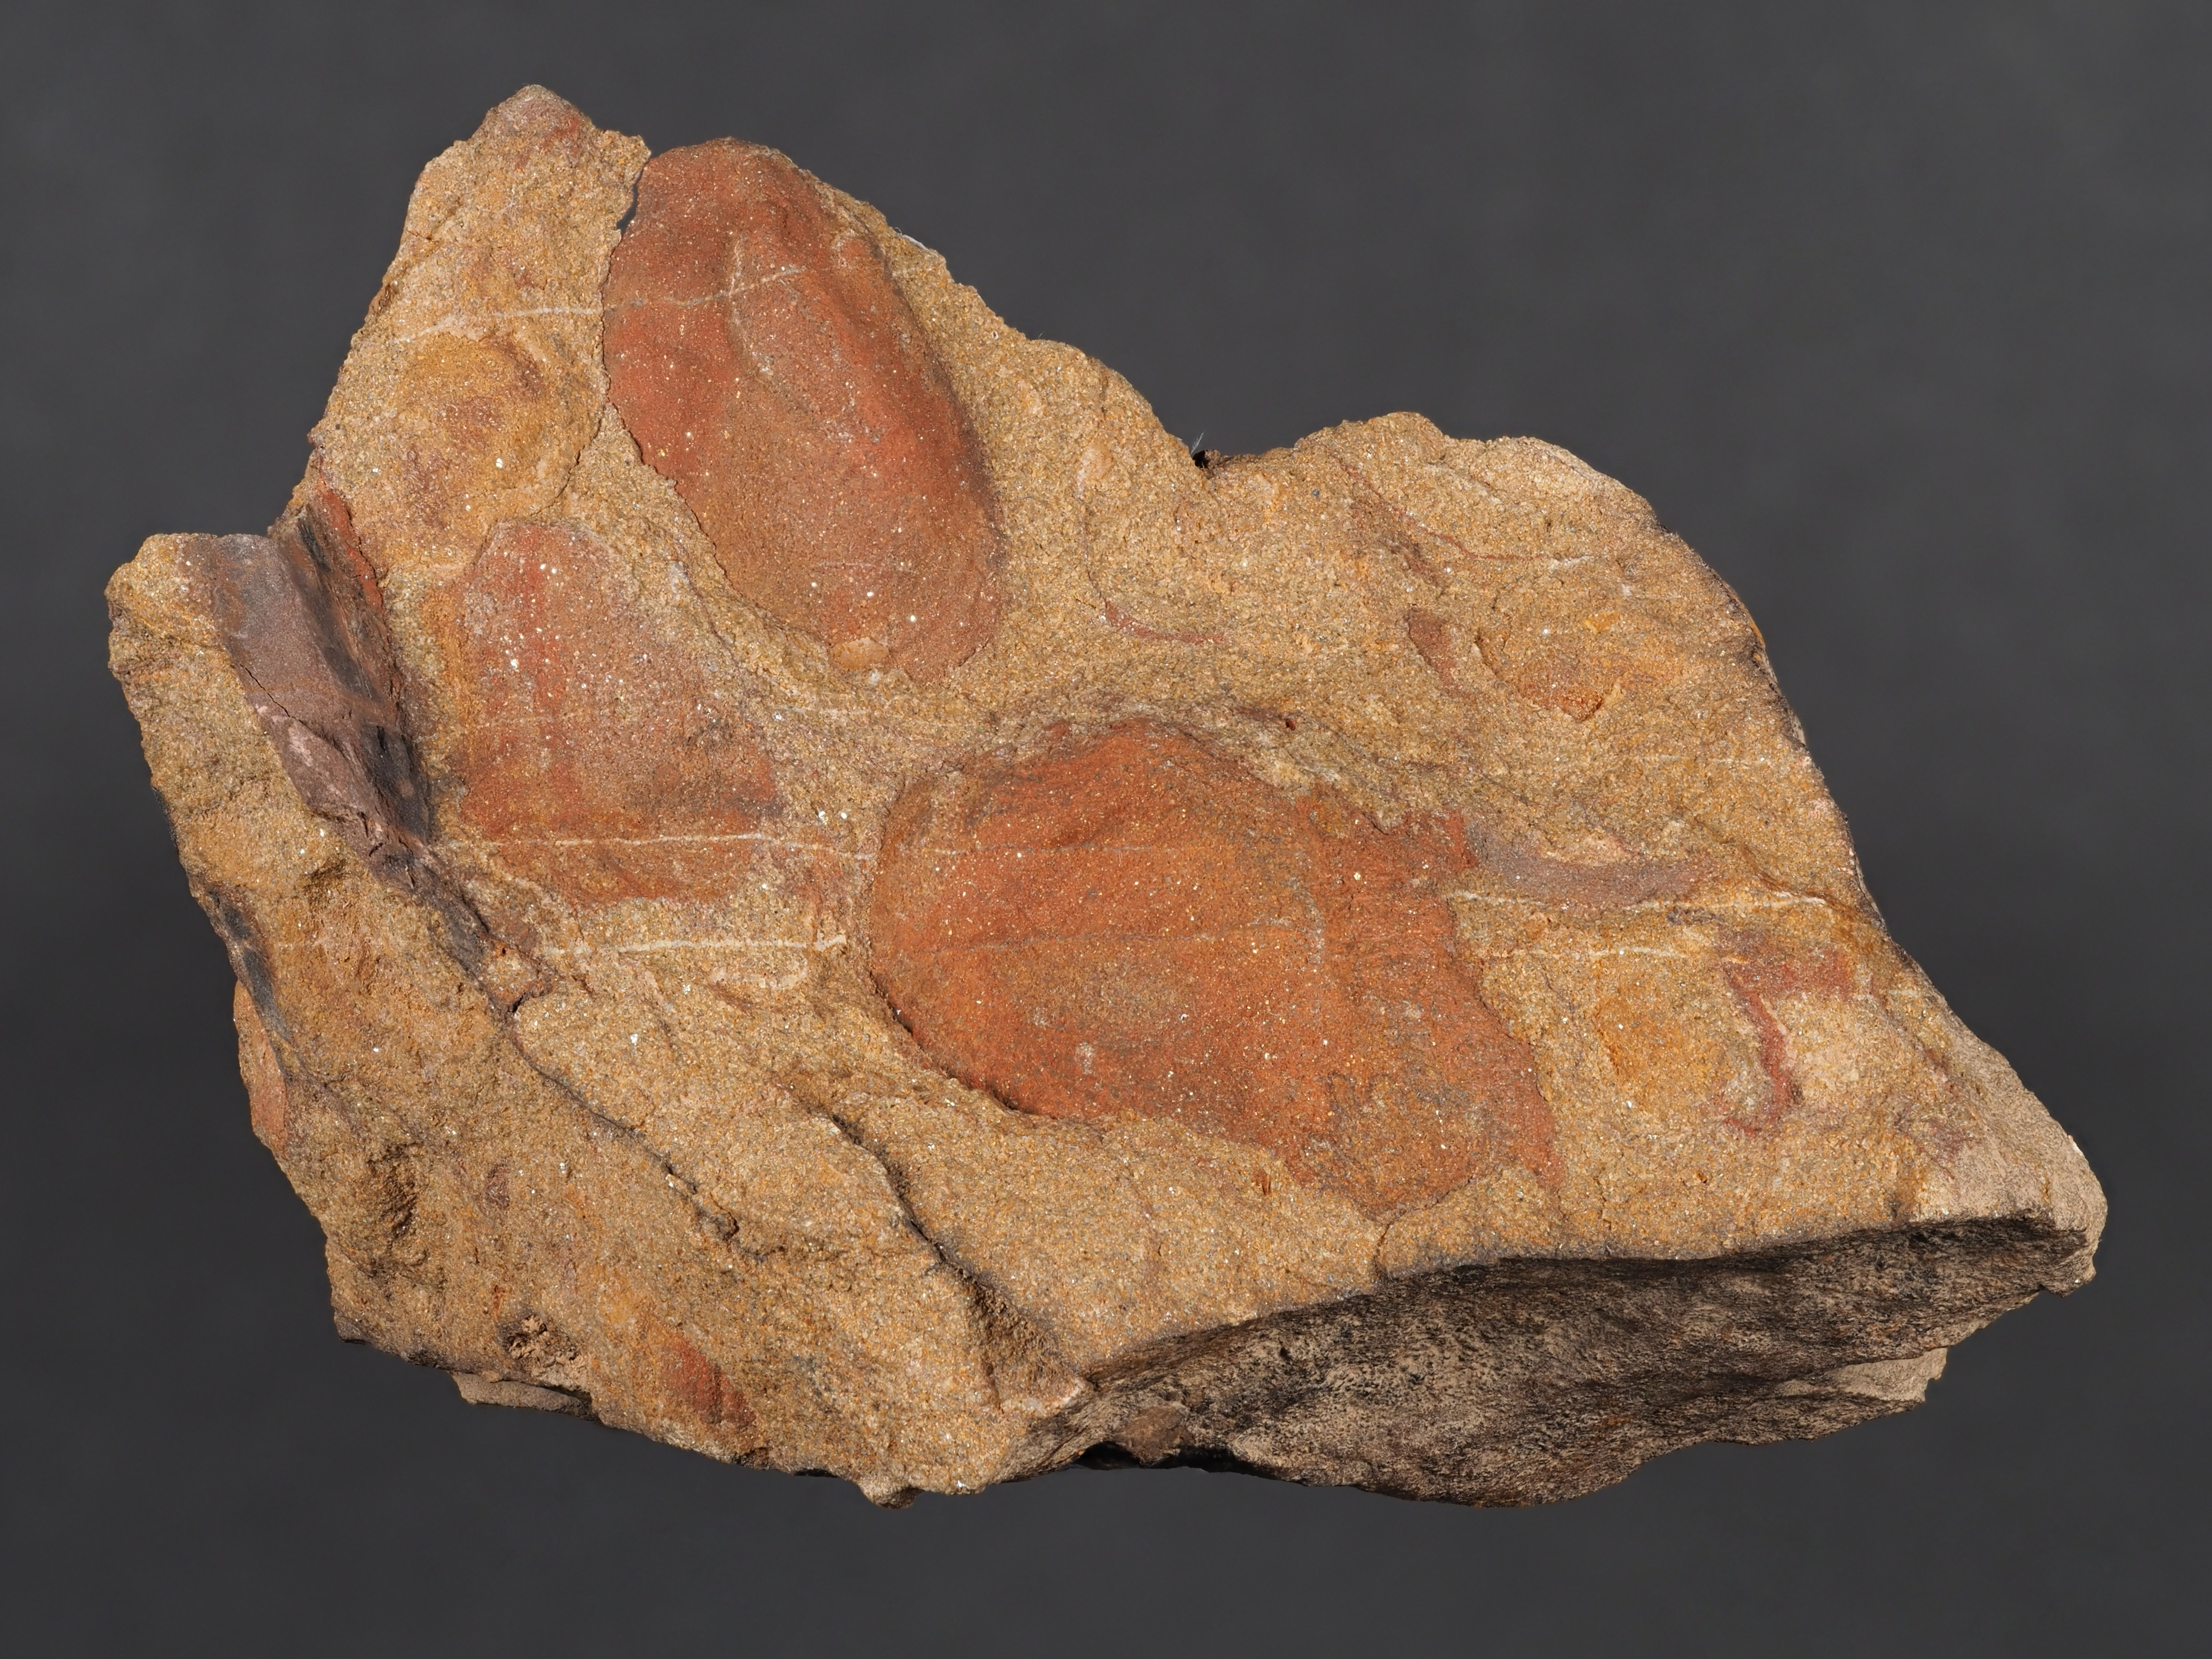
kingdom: Animalia
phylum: Mollusca
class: Bivalvia
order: Carditida
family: Crassatellidae
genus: Cypricardella
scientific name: Cypricardella
